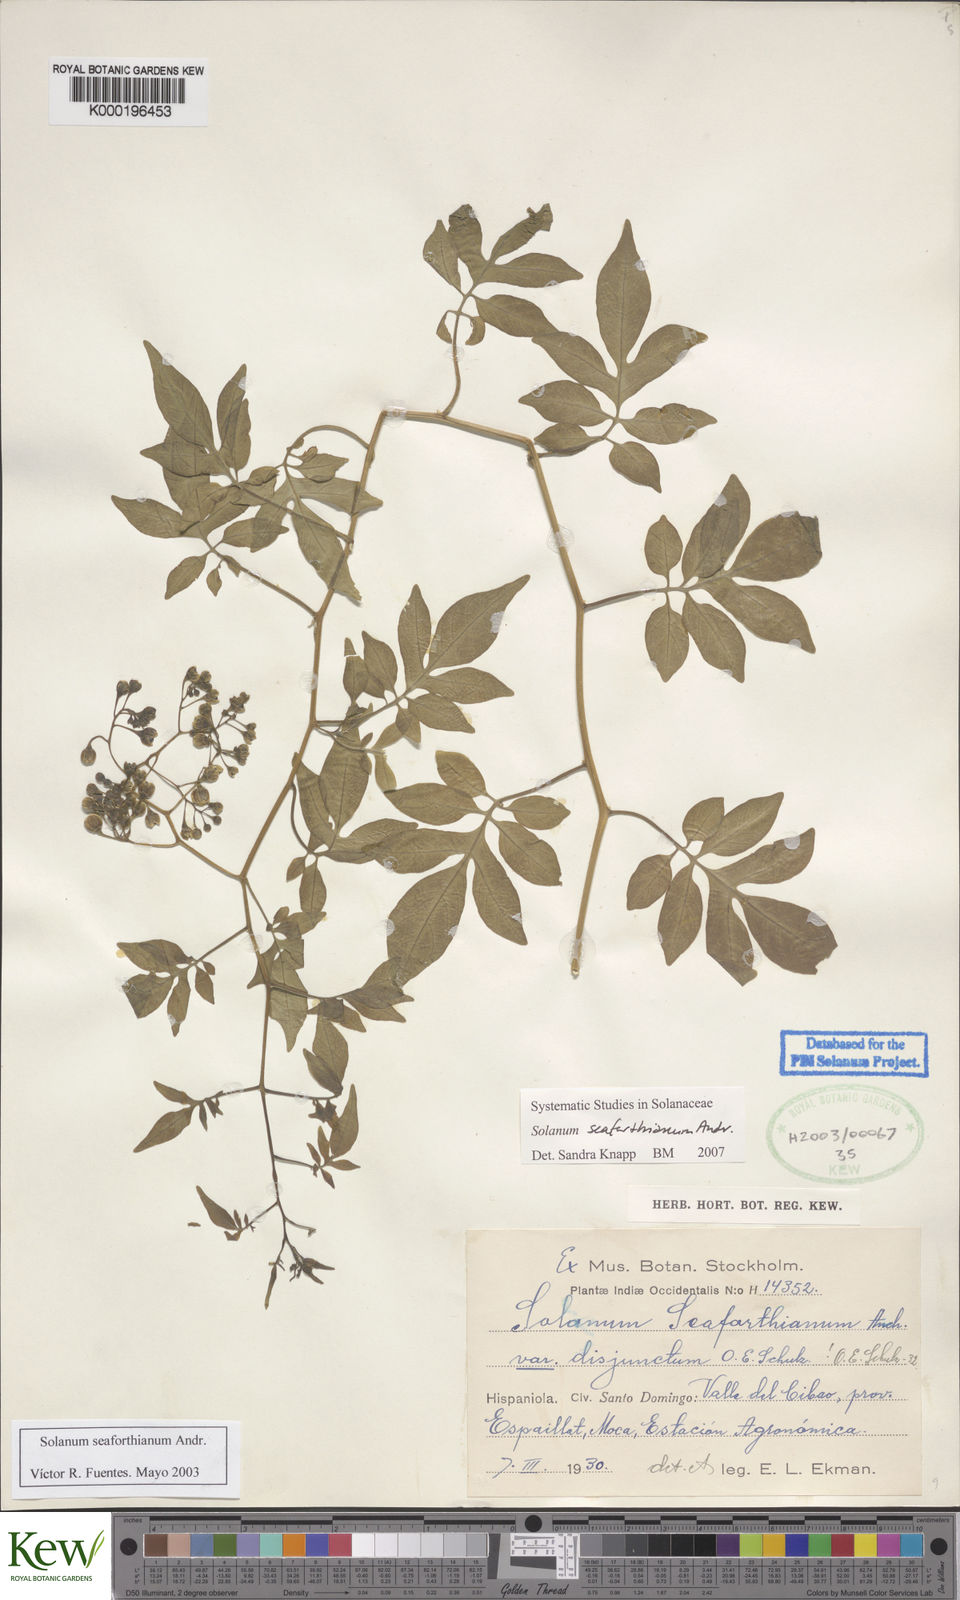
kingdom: Plantae
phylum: Tracheophyta
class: Magnoliopsida
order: Solanales
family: Solanaceae
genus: Solanum
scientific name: Solanum seaforthianum
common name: Brazilian nightshade
